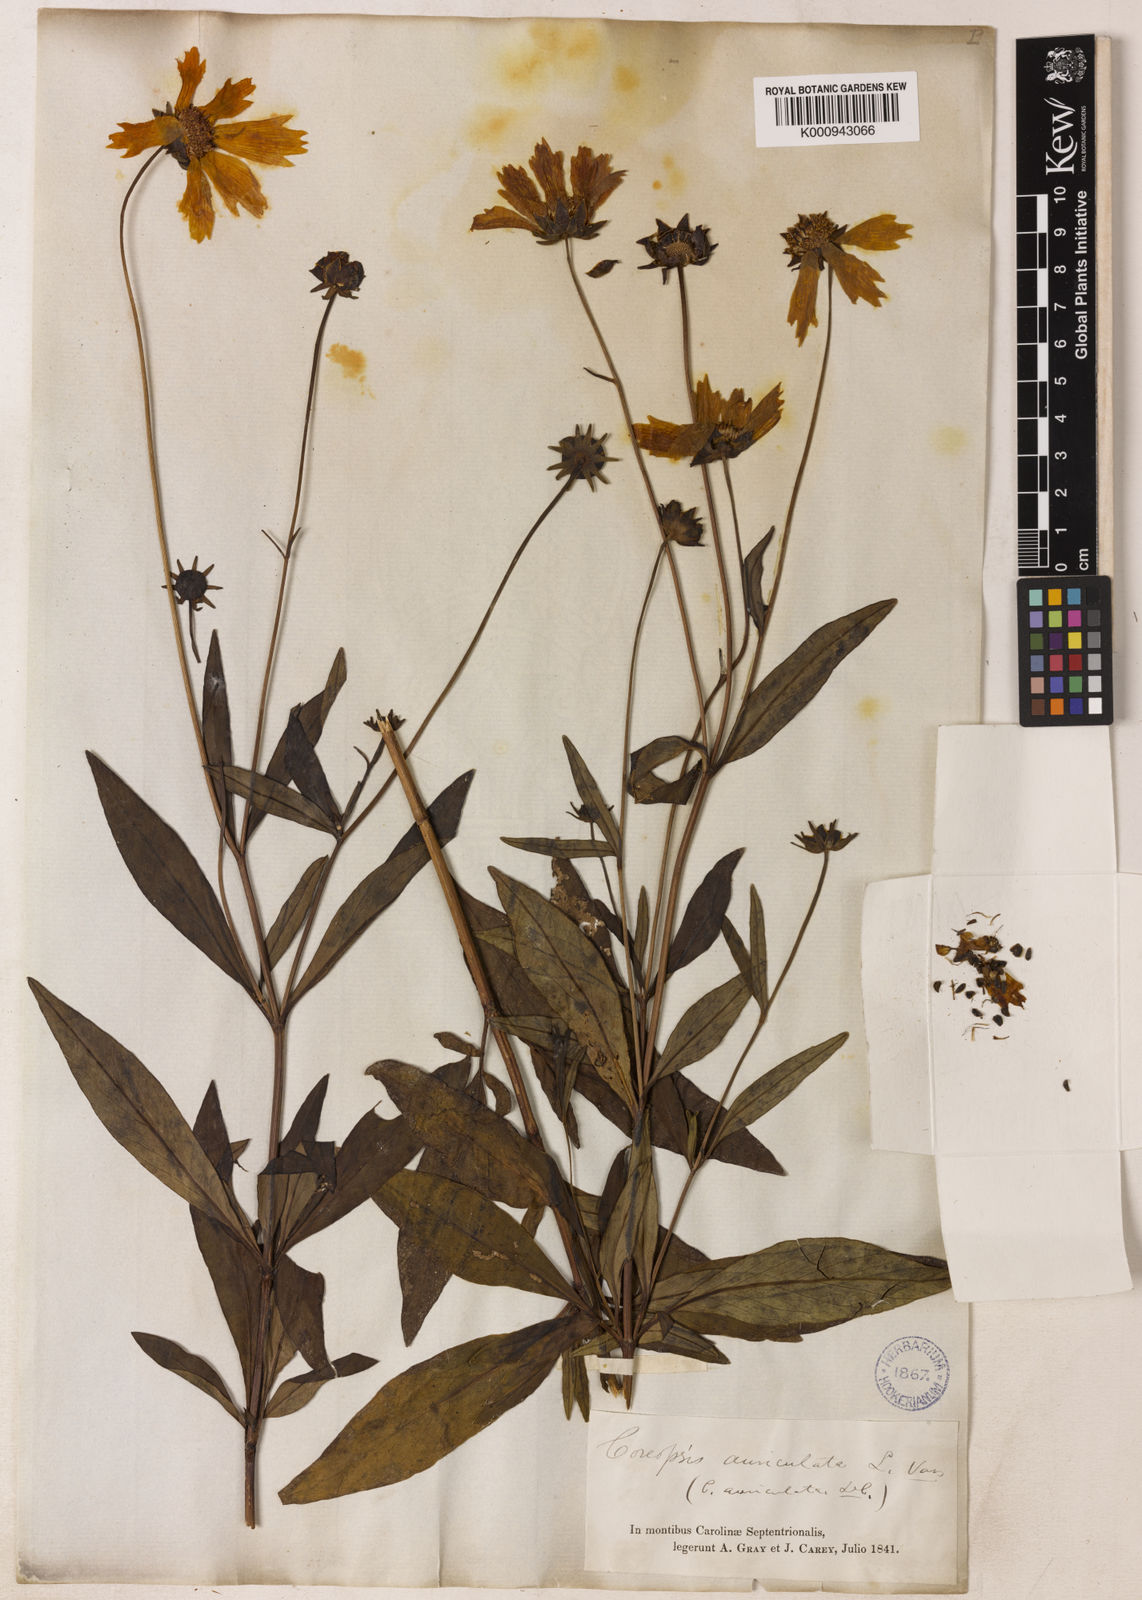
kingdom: Plantae
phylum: Tracheophyta
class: Magnoliopsida
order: Asterales
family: Asteraceae
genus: Coreopsis
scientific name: Coreopsis pubescens
